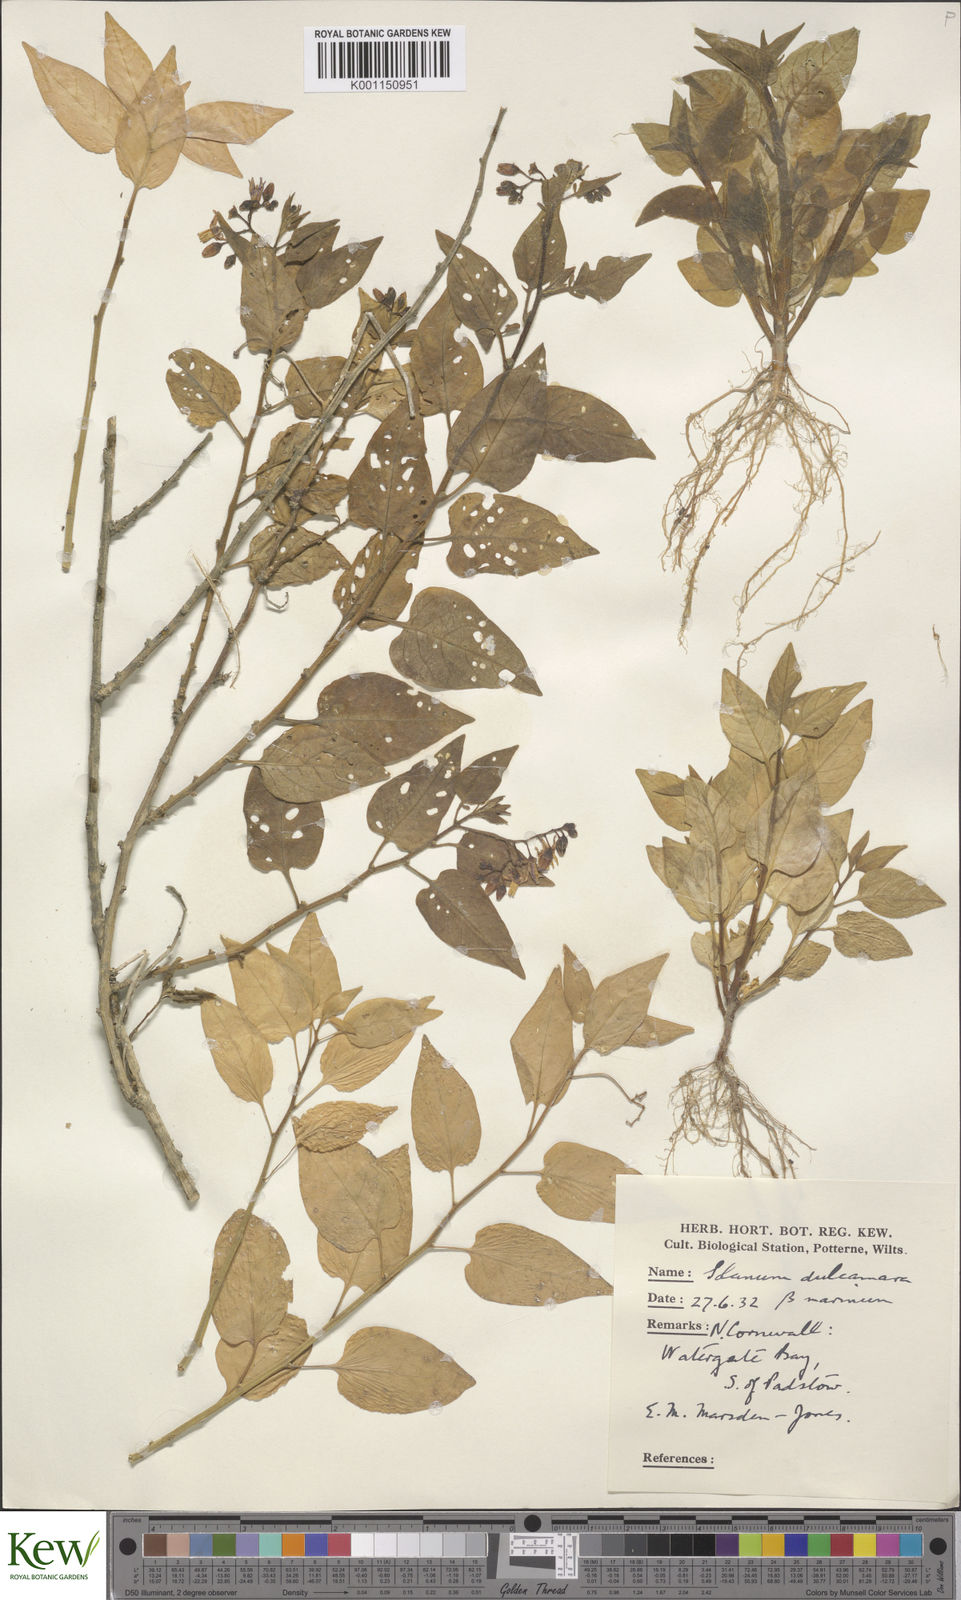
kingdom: Plantae
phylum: Tracheophyta
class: Magnoliopsida
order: Solanales
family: Solanaceae
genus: Solanum
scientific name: Solanum dulcamara
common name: Climbing nightshade
